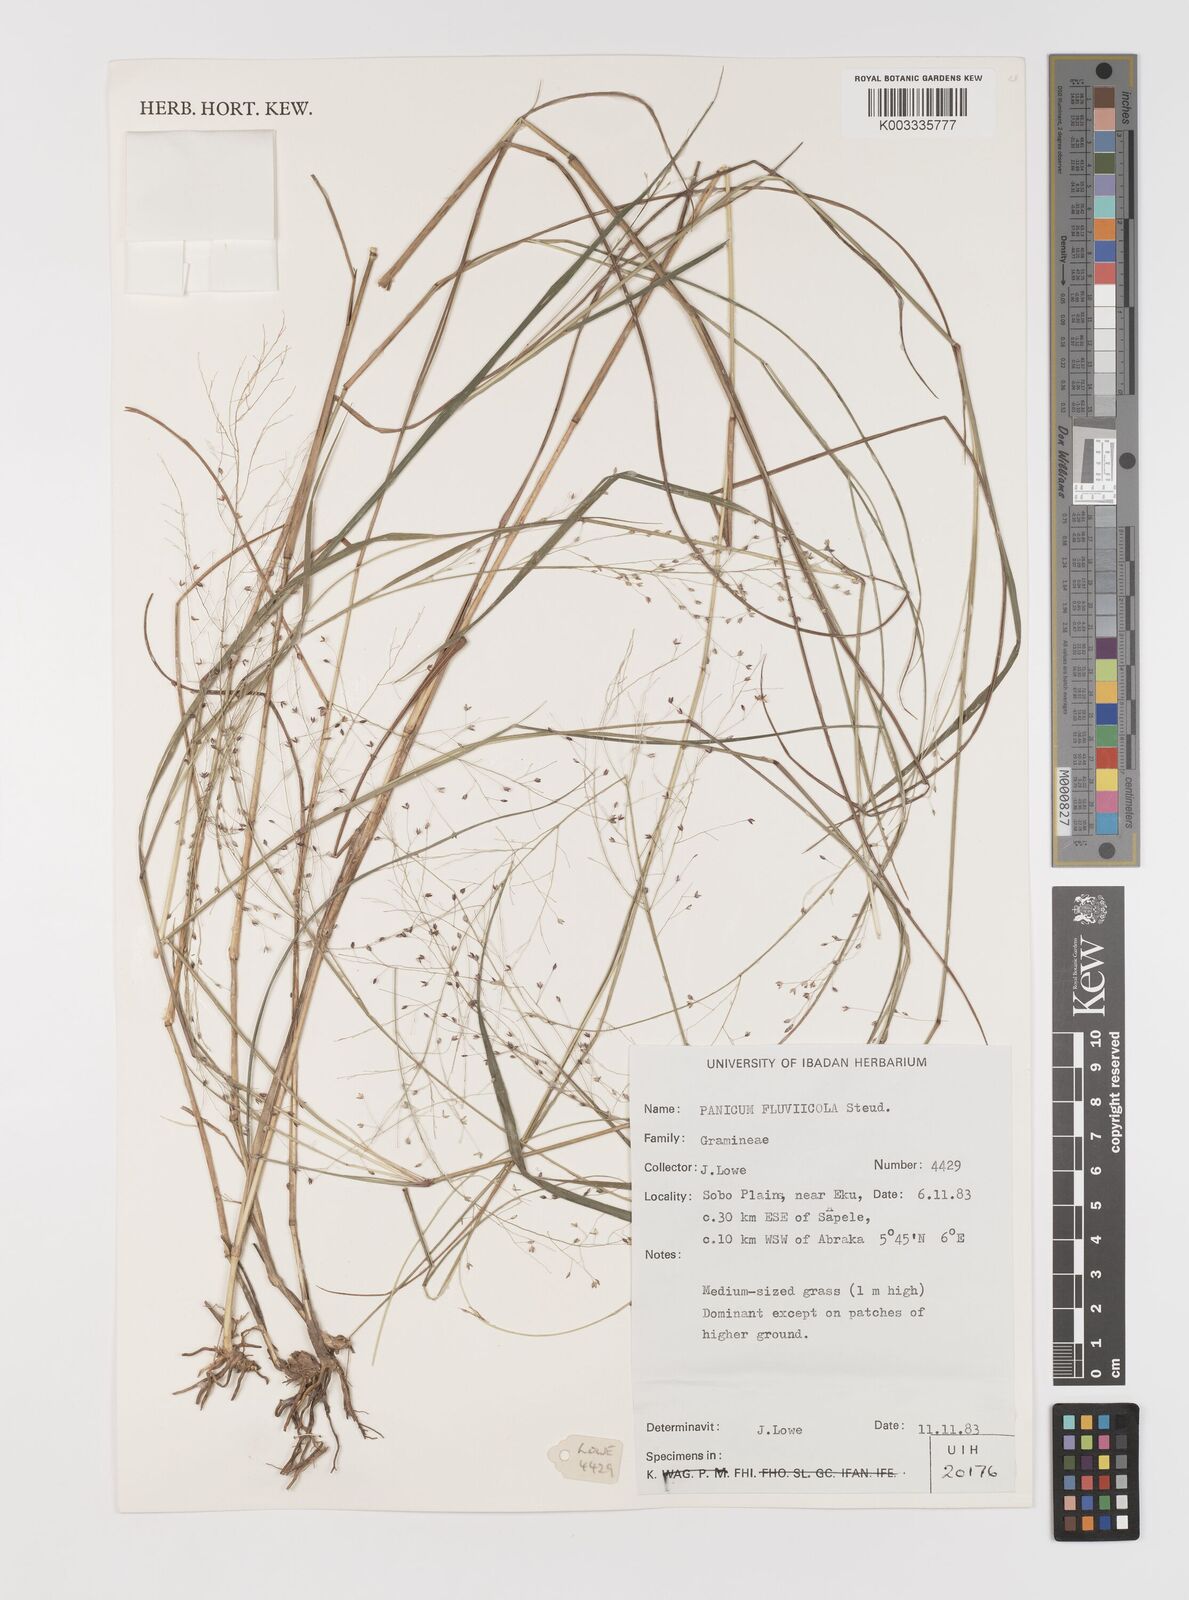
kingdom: Plantae
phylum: Tracheophyta
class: Liliopsida
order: Poales
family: Poaceae
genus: Panicum
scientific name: Panicum fluviicola
